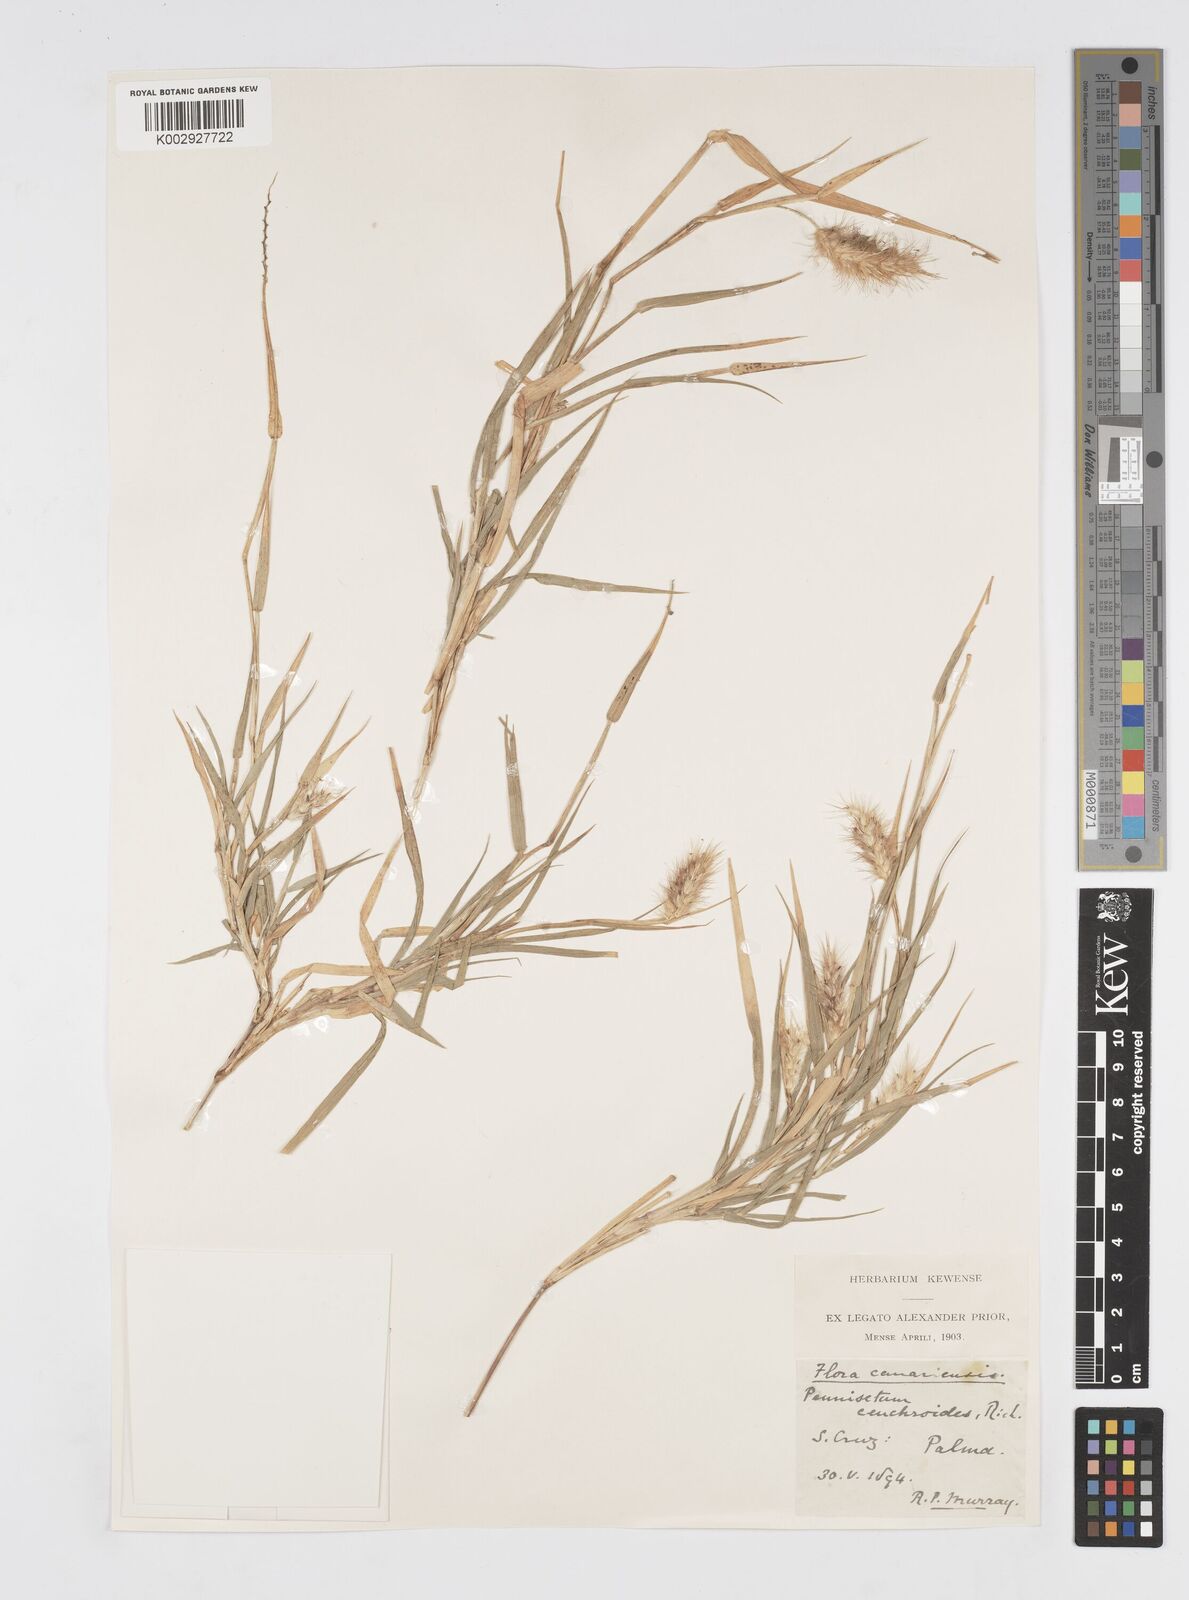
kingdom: Plantae
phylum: Tracheophyta
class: Liliopsida
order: Poales
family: Poaceae
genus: Cenchrus
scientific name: Cenchrus ciliaris
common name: Buffelgrass
